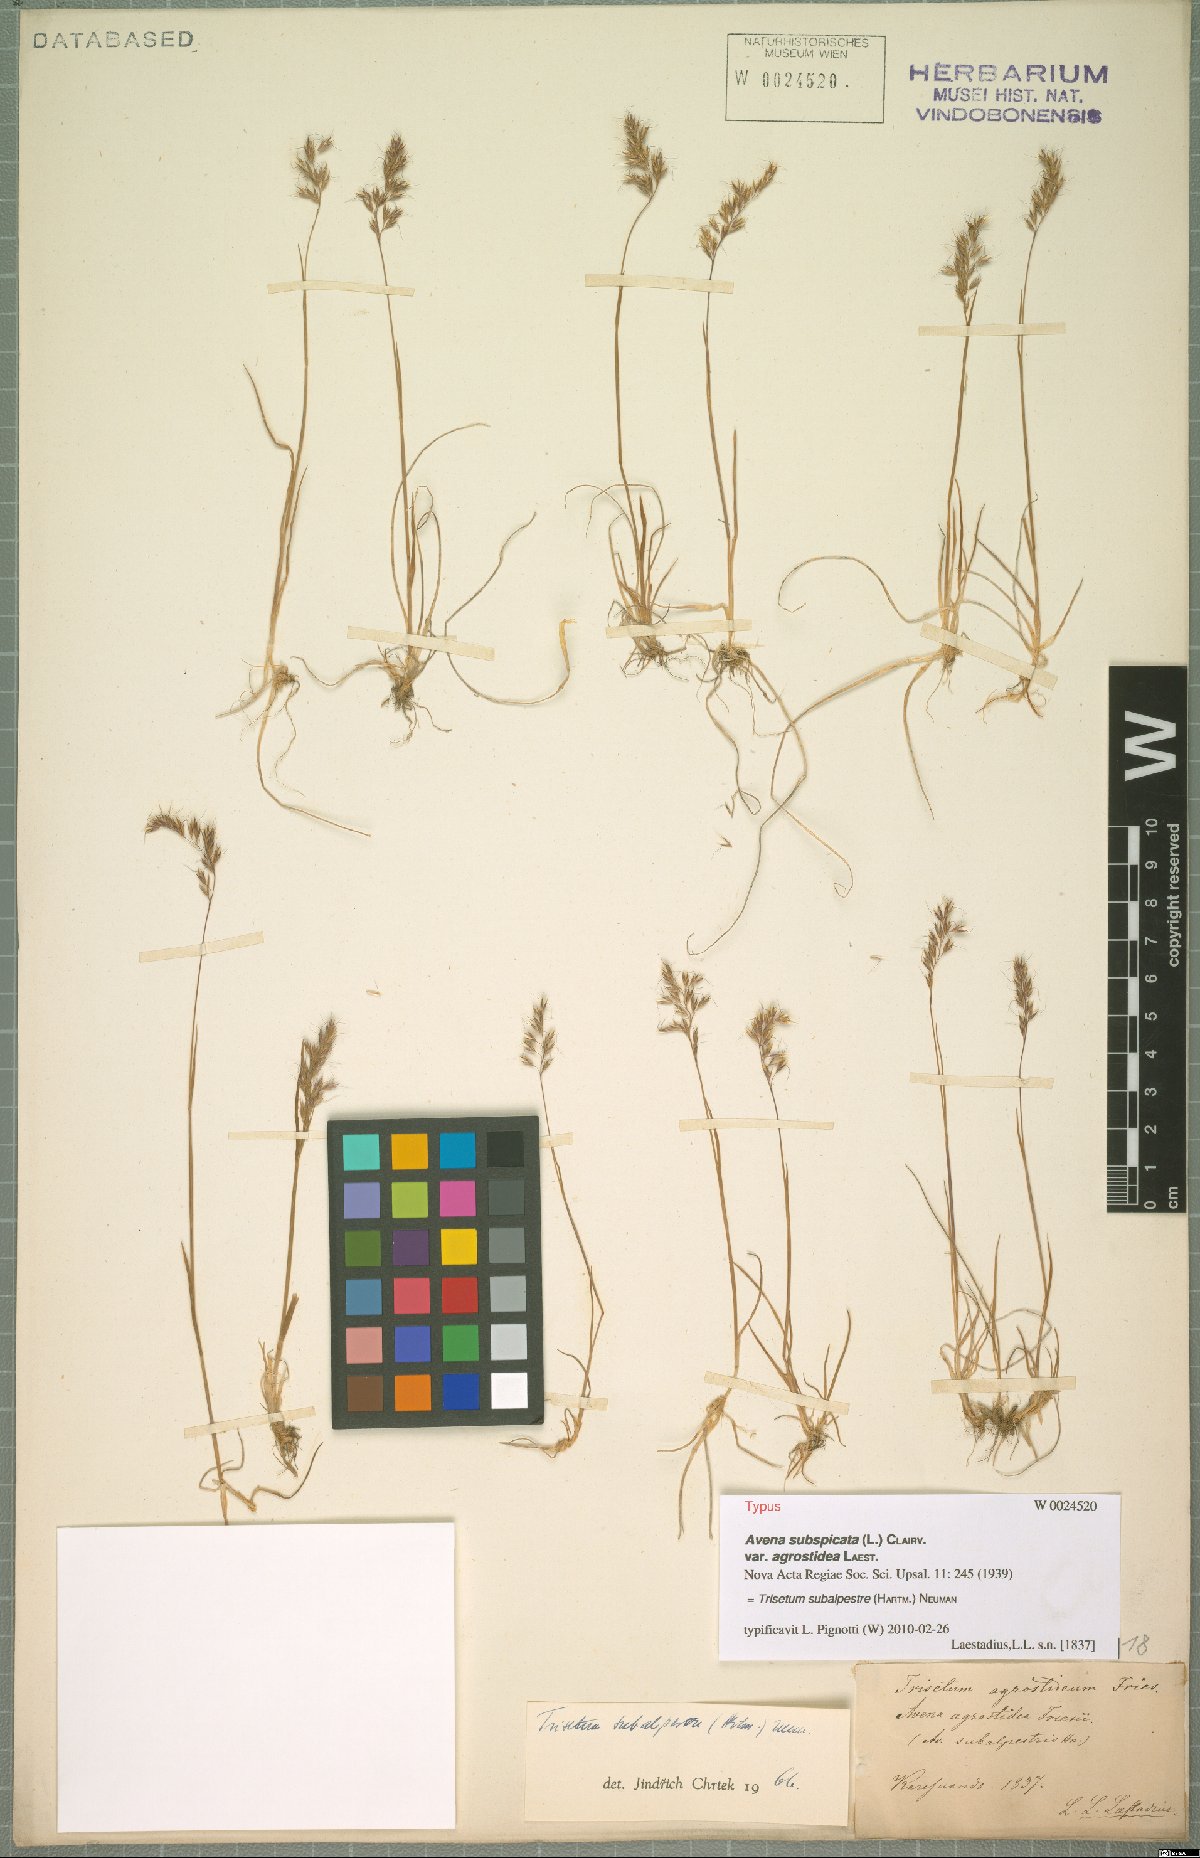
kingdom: Plantae
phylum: Tracheophyta
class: Liliopsida
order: Poales
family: Poaceae
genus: Koeleria
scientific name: Koeleria subalpestris
